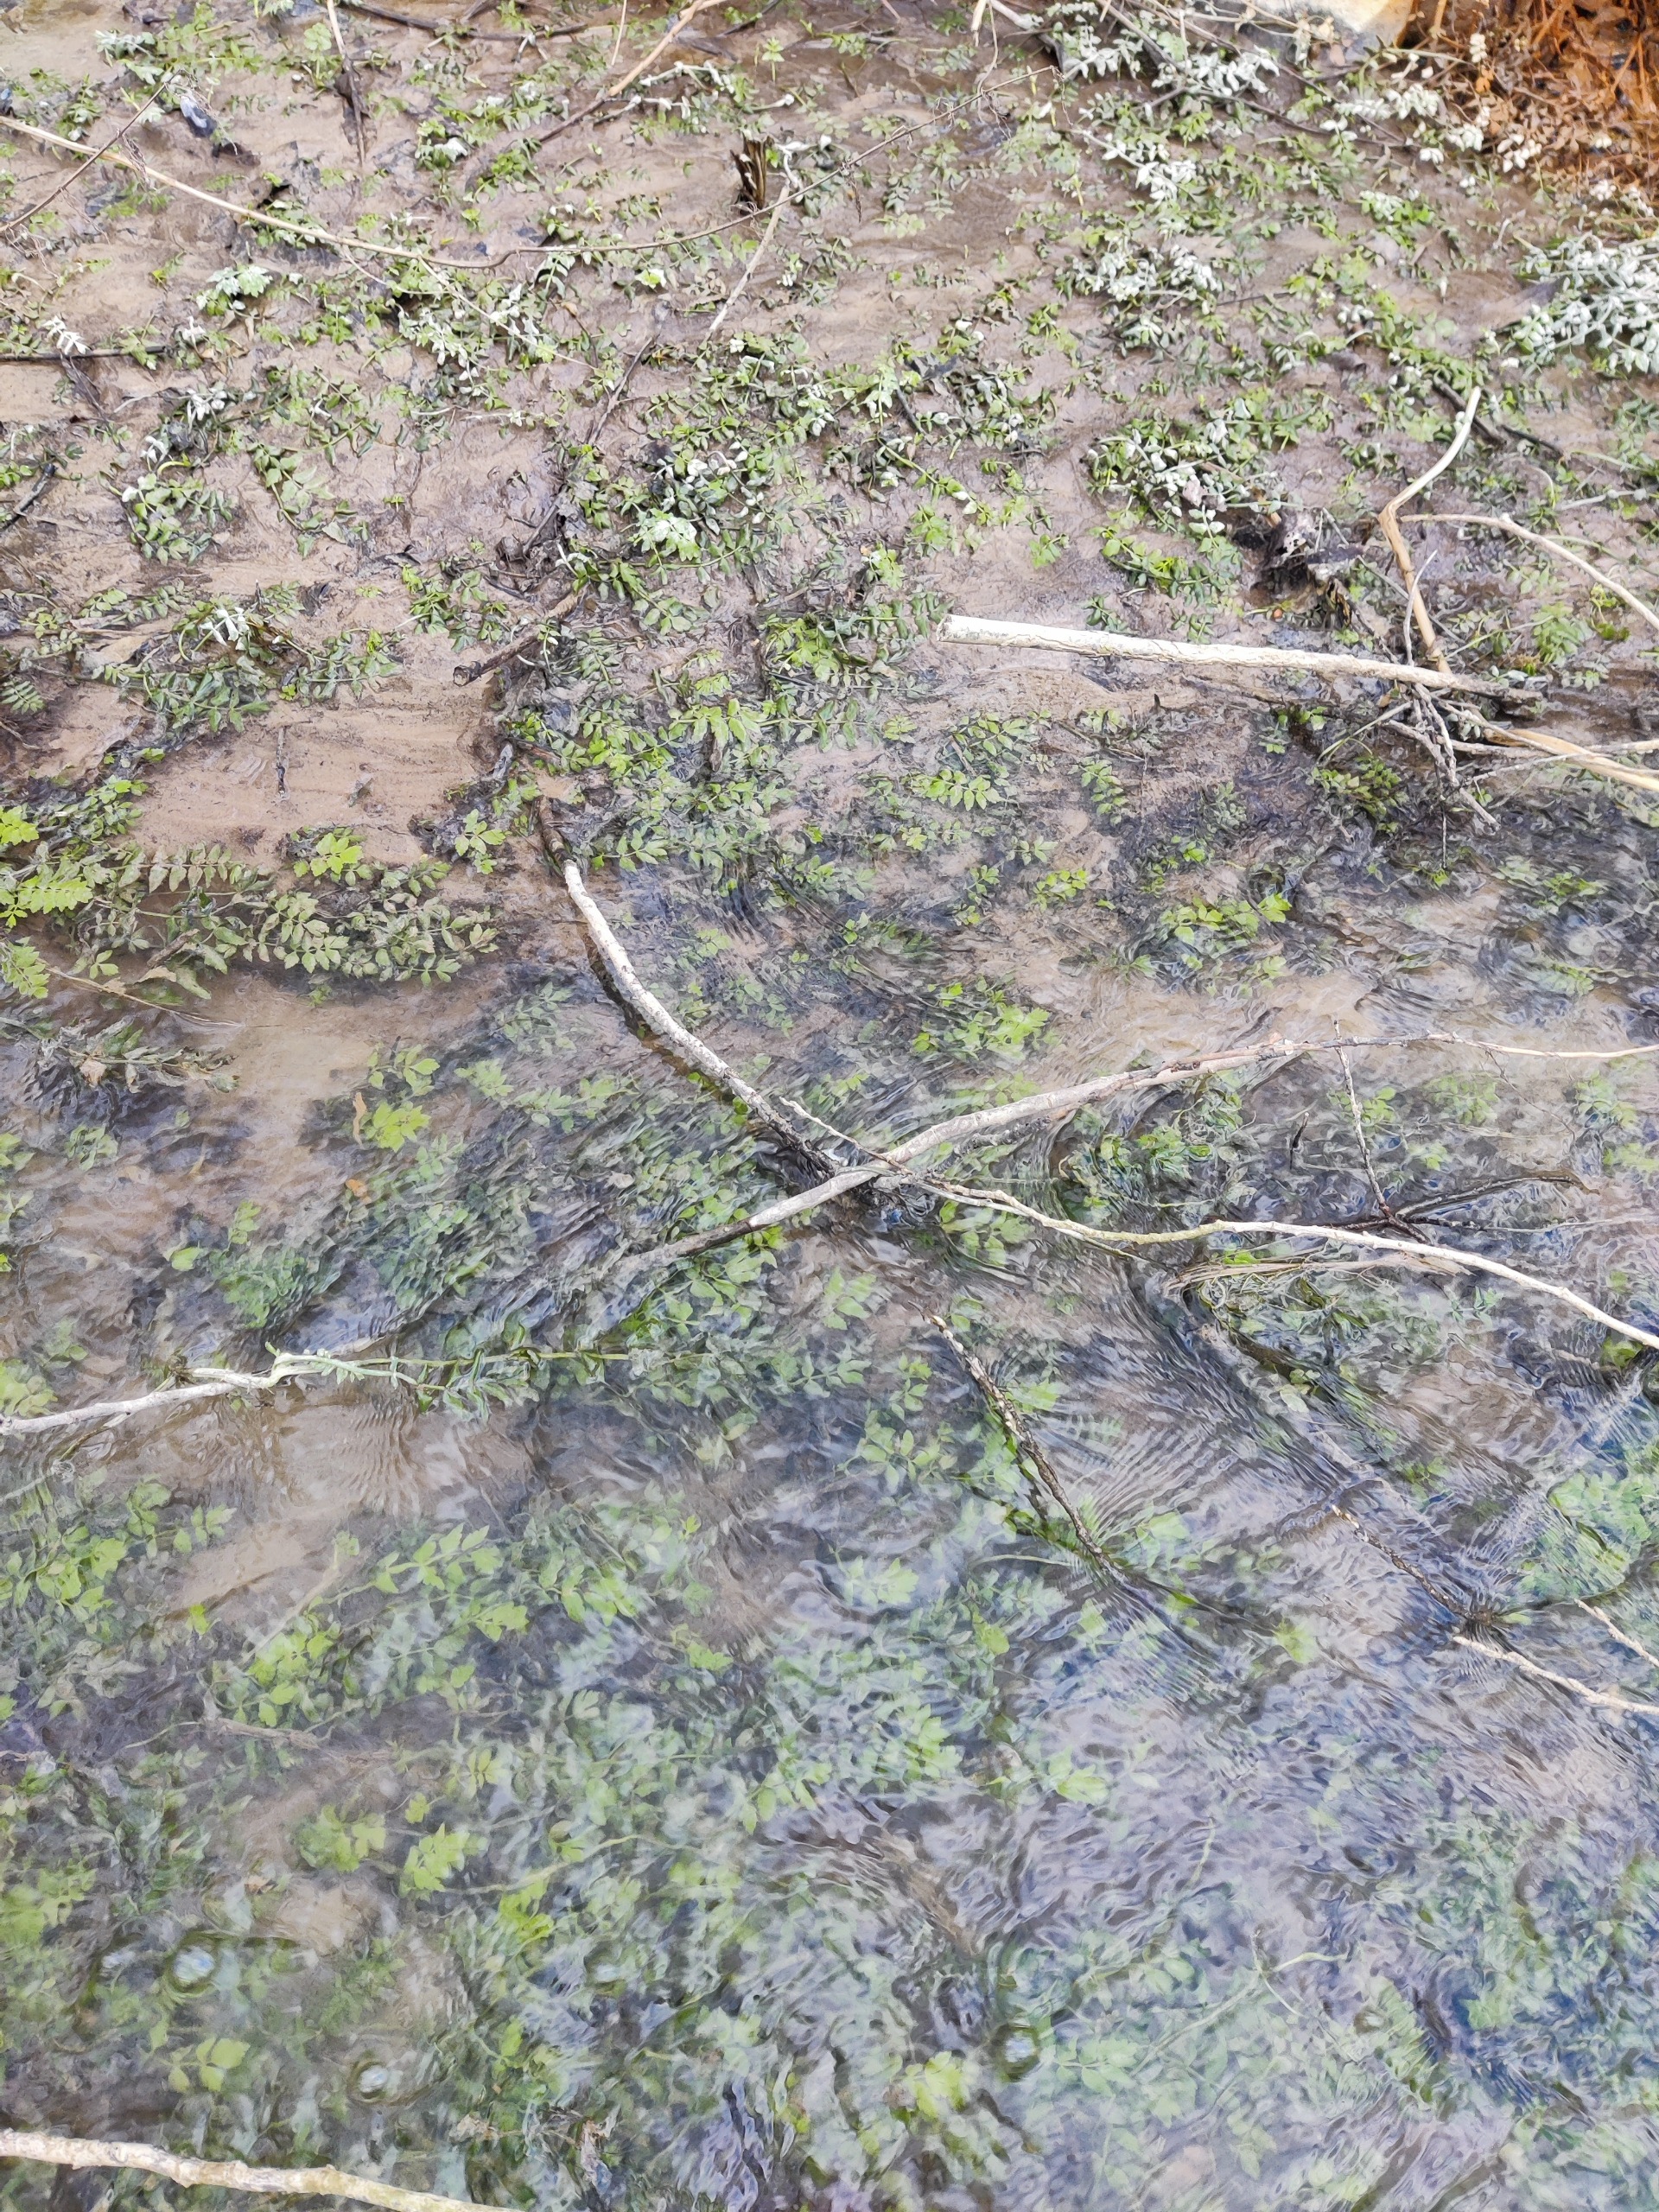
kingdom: Plantae
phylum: Tracheophyta
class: Magnoliopsida
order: Apiales
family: Apiaceae
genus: Berula
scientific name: Berula erecta
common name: Sideskærm
